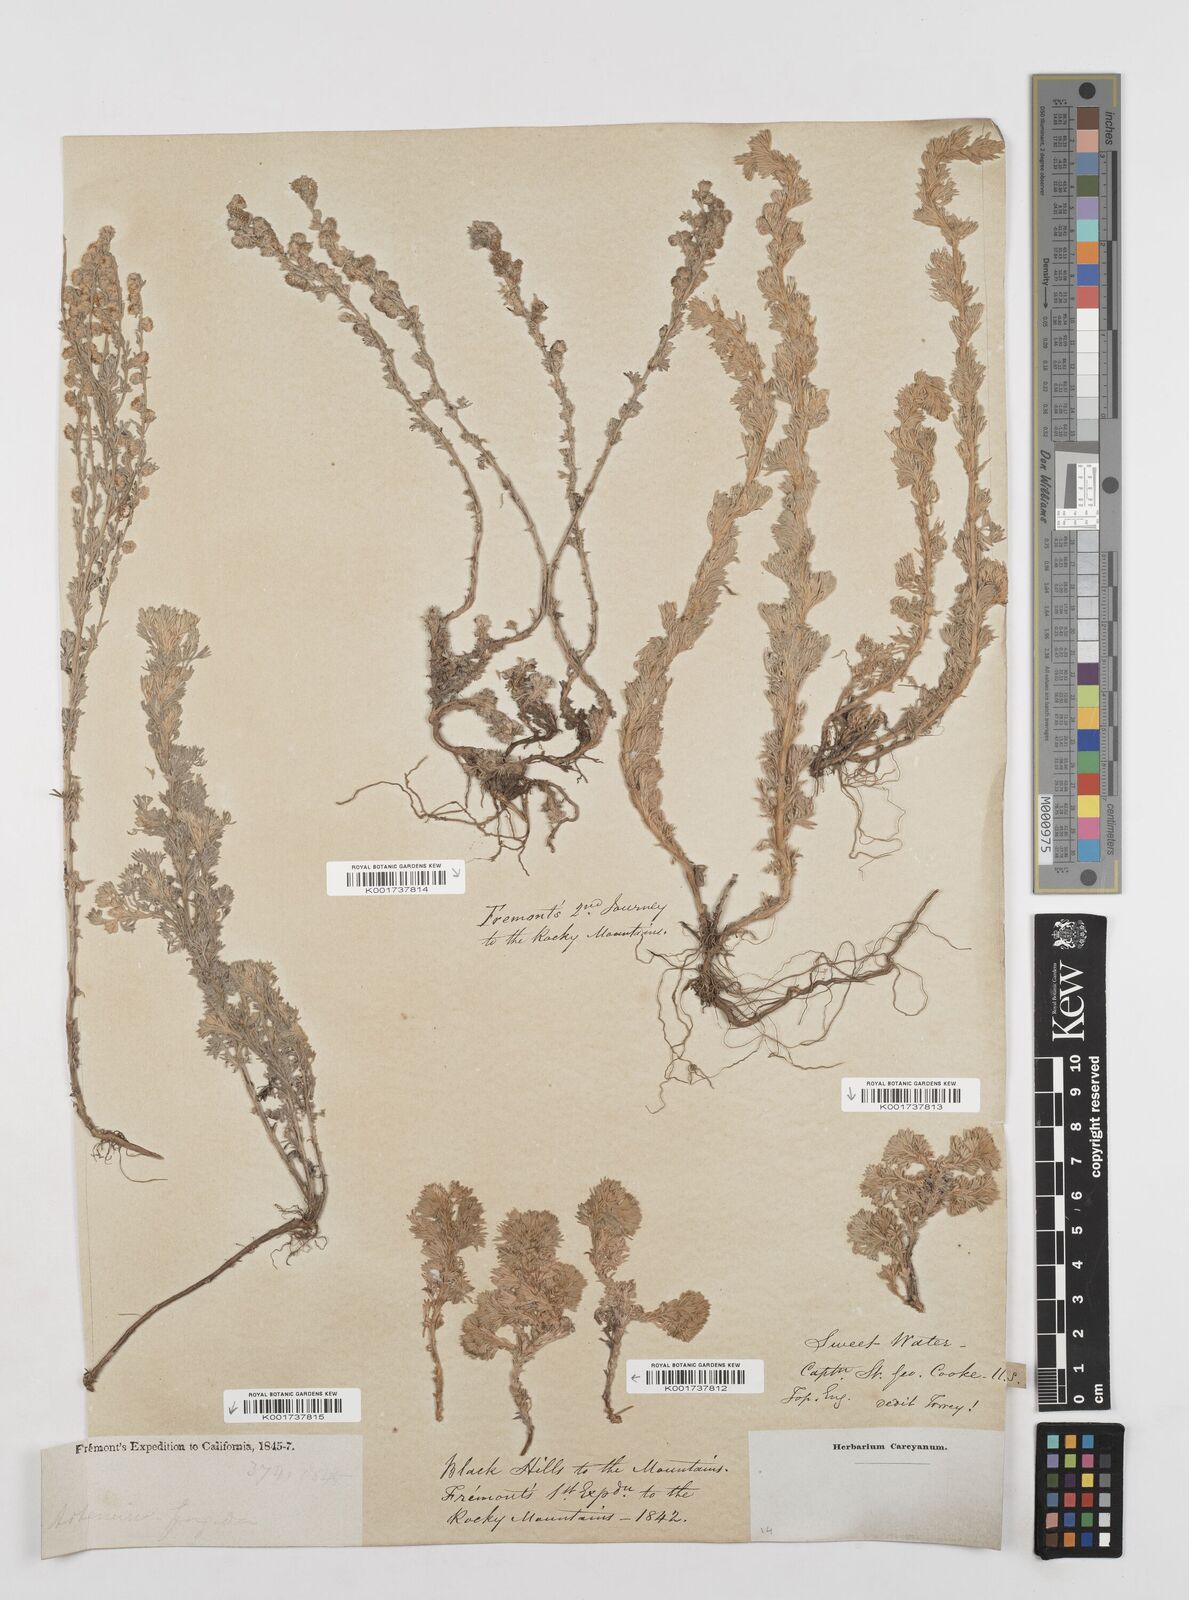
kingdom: Plantae
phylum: Tracheophyta
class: Magnoliopsida
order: Asterales
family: Asteraceae
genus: Artemisia
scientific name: Artemisia frigida
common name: Prairie sagewort
